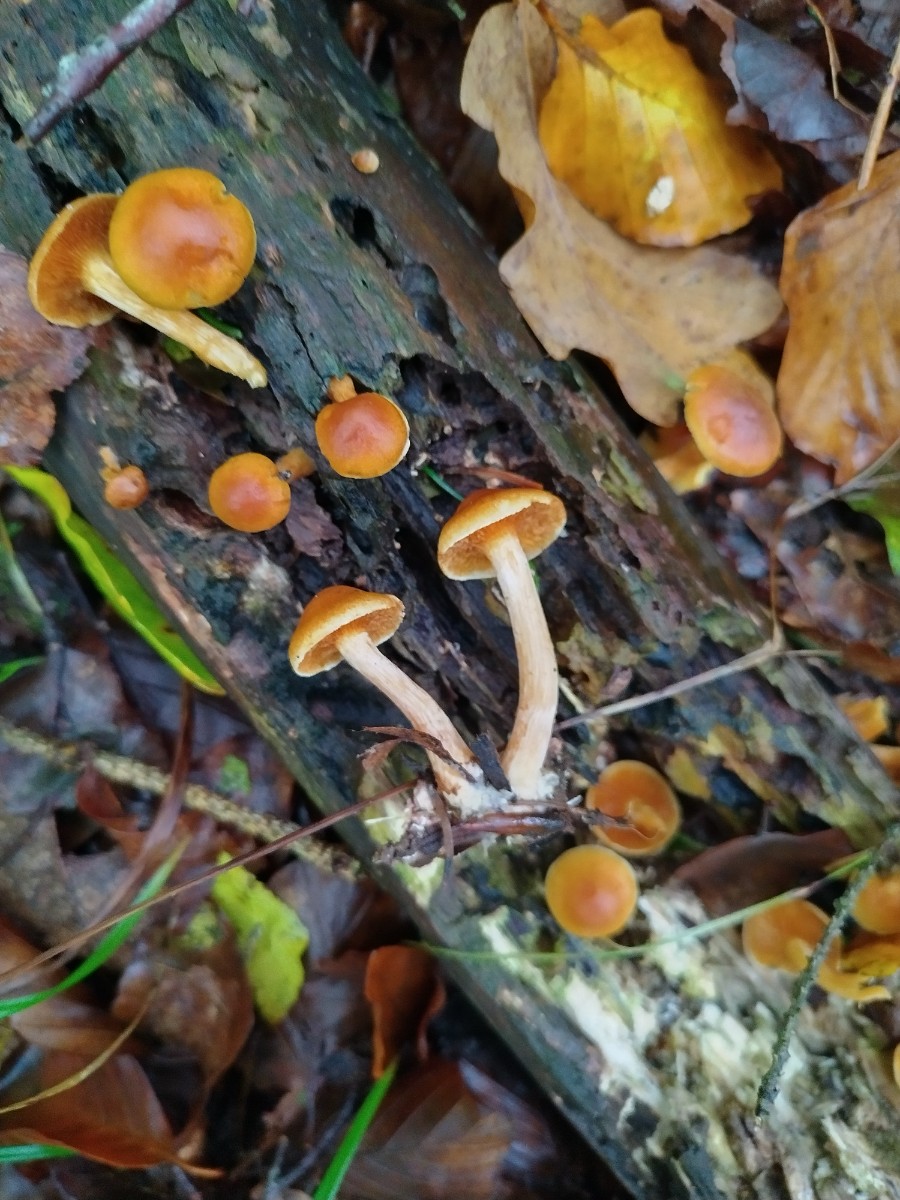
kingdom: Fungi
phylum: Basidiomycota
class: Agaricomycetes
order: Agaricales
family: Hymenogastraceae
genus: Gymnopilus
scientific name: Gymnopilus penetrans
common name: plettet flammehat
